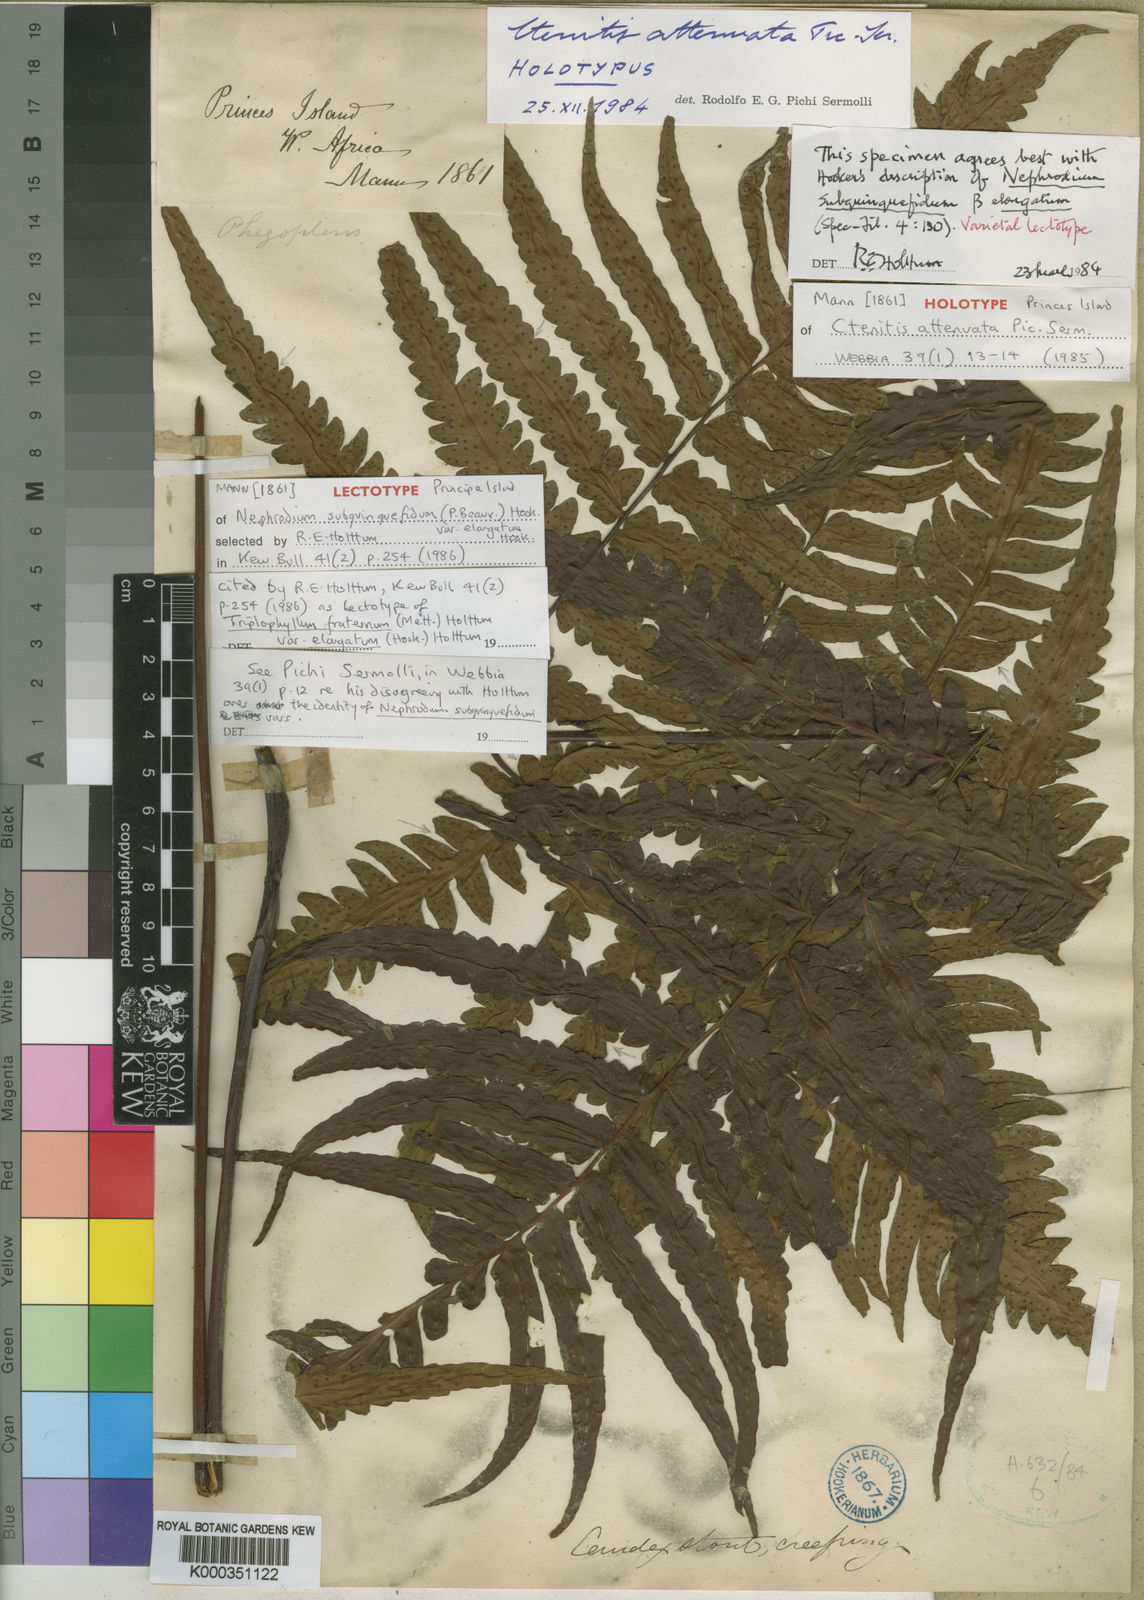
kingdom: Plantae
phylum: Tracheophyta
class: Polypodiopsida
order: Polypodiales
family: Tectariaceae
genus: Triplophyllum
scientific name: Triplophyllum attenuatum
